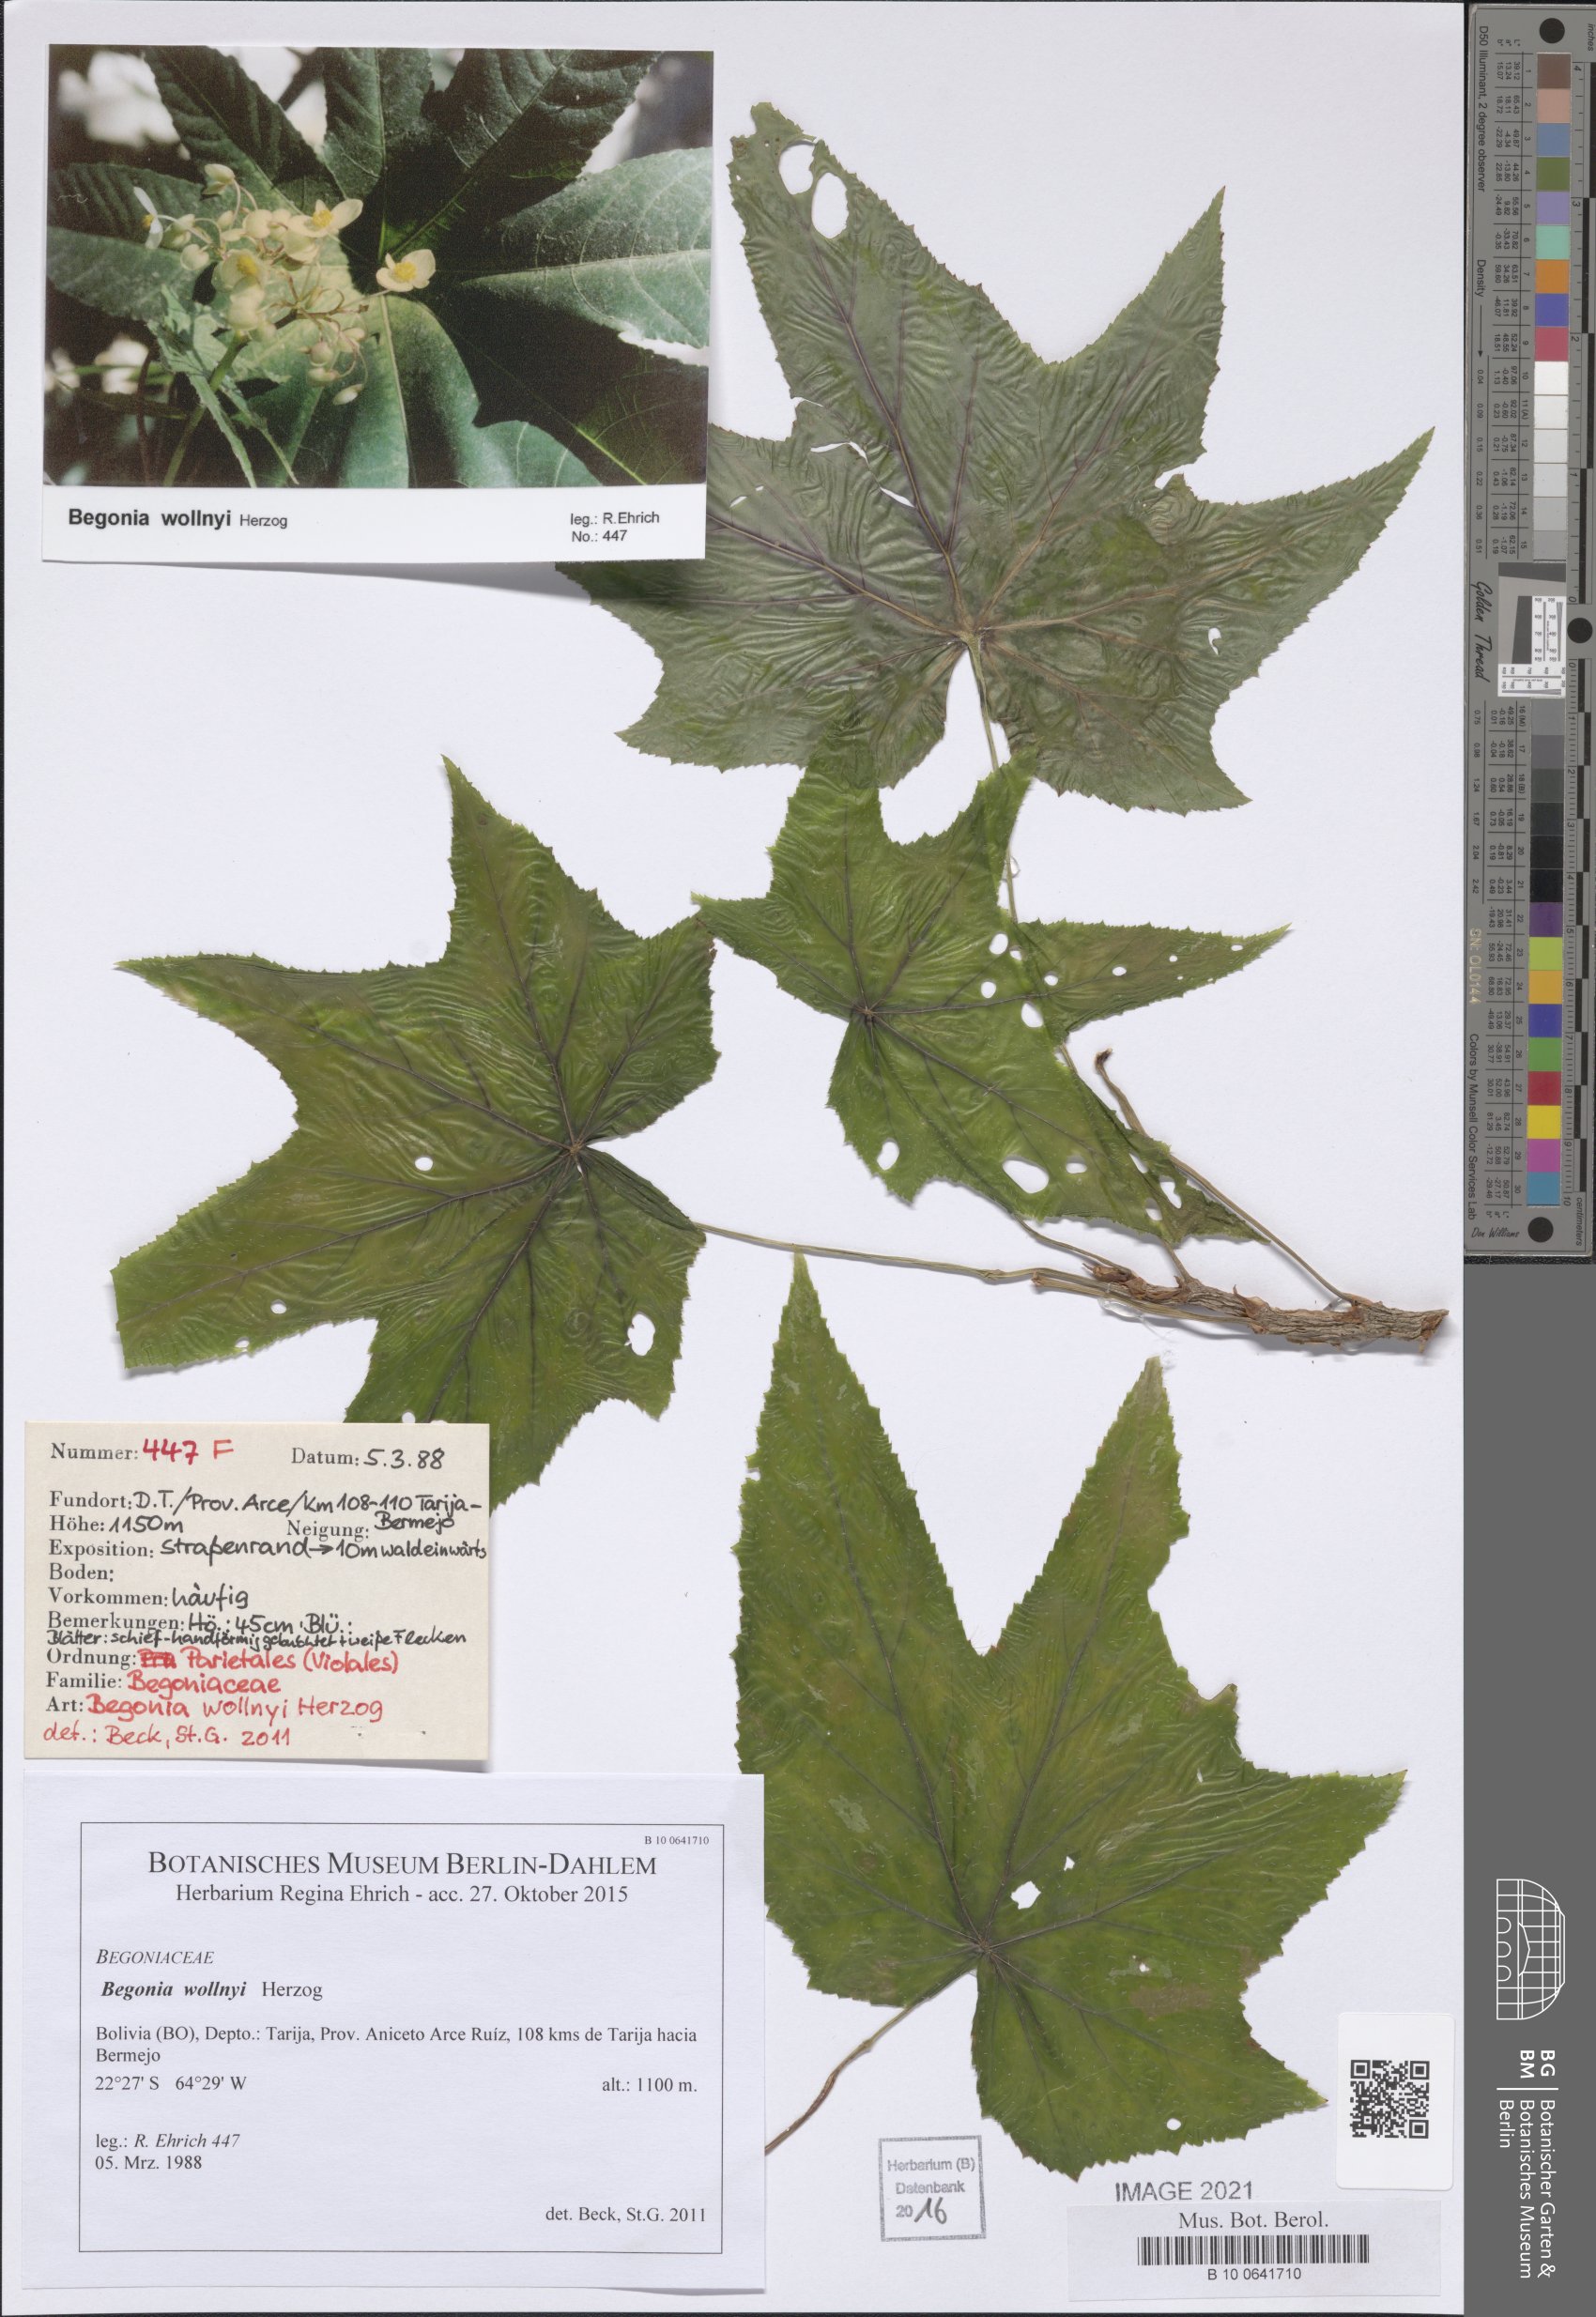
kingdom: Plantae
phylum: Tracheophyta
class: Magnoliopsida
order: Cucurbitales
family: Begoniaceae
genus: Begonia
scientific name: Begonia wollnyi
